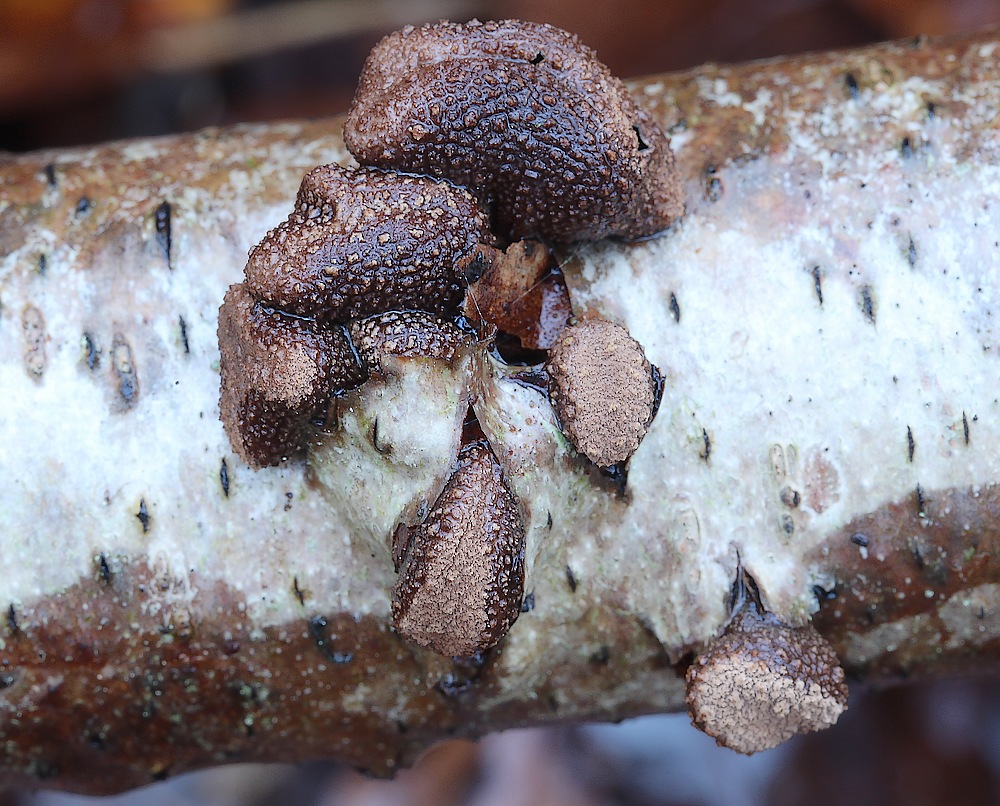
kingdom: Fungi
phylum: Ascomycota
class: Leotiomycetes
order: Helotiales
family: Cenangiaceae
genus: Encoelia
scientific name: Encoelia furfuracea
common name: hassel-læderskive
